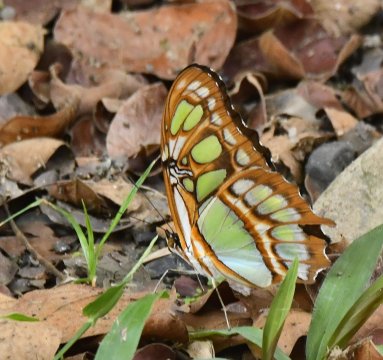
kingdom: Animalia
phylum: Arthropoda
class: Insecta
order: Lepidoptera
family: Nymphalidae
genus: Siproeta
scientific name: Siproeta stelenes
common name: Malachite
